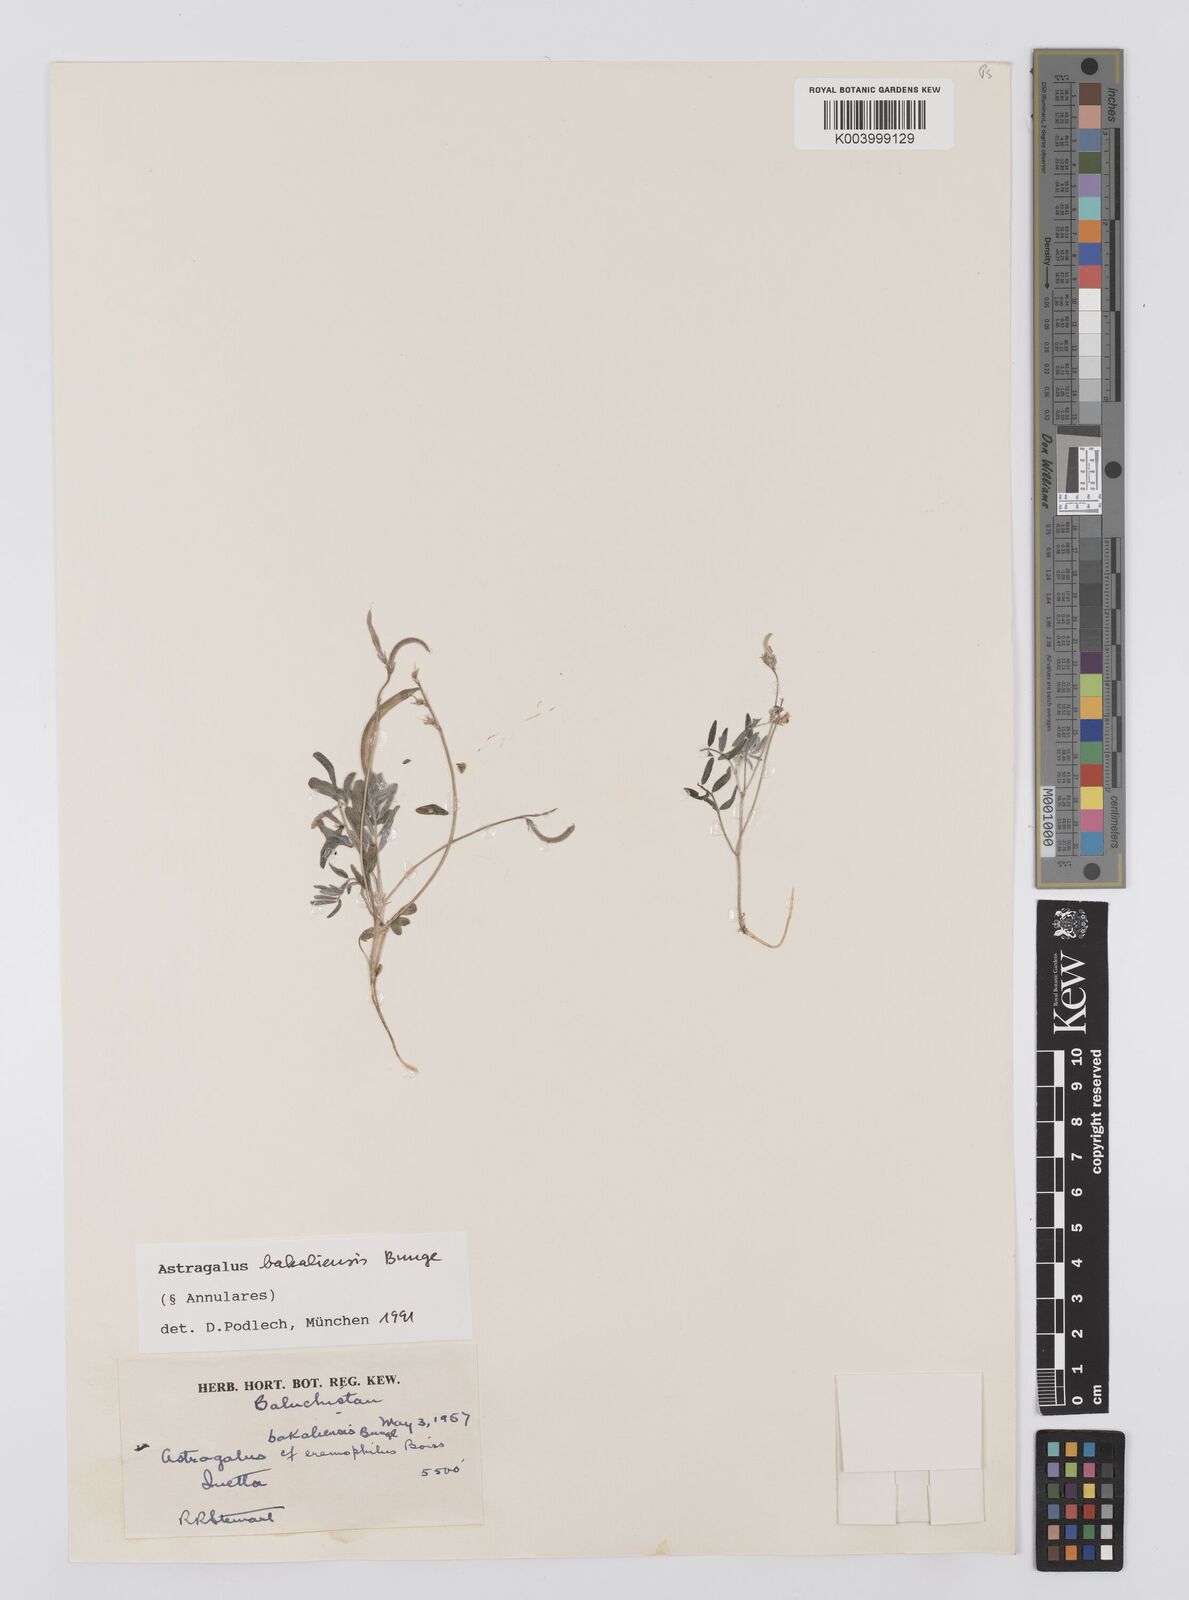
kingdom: Plantae
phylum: Tracheophyta
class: Magnoliopsida
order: Fabales
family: Fabaceae
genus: Astragalus
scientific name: Astragalus bakaliensis
